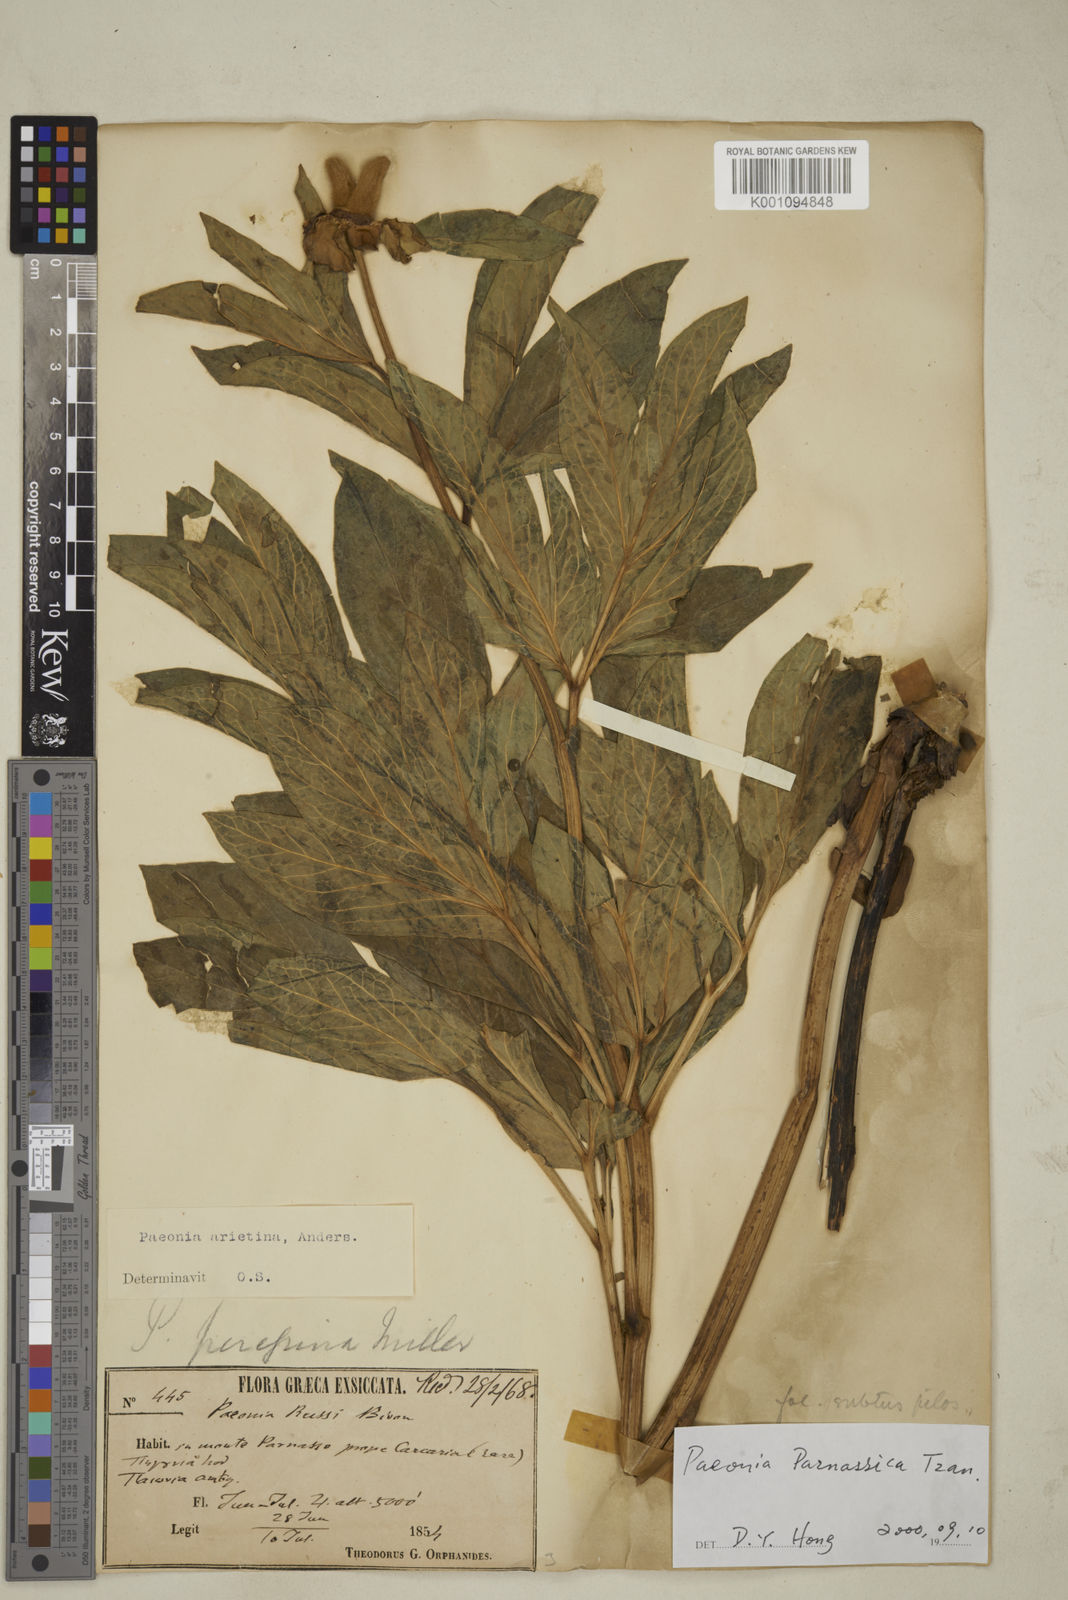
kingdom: Plantae
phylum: Tracheophyta
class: Magnoliopsida
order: Saxifragales
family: Paeoniaceae
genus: Paeonia
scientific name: Paeonia parnassica
